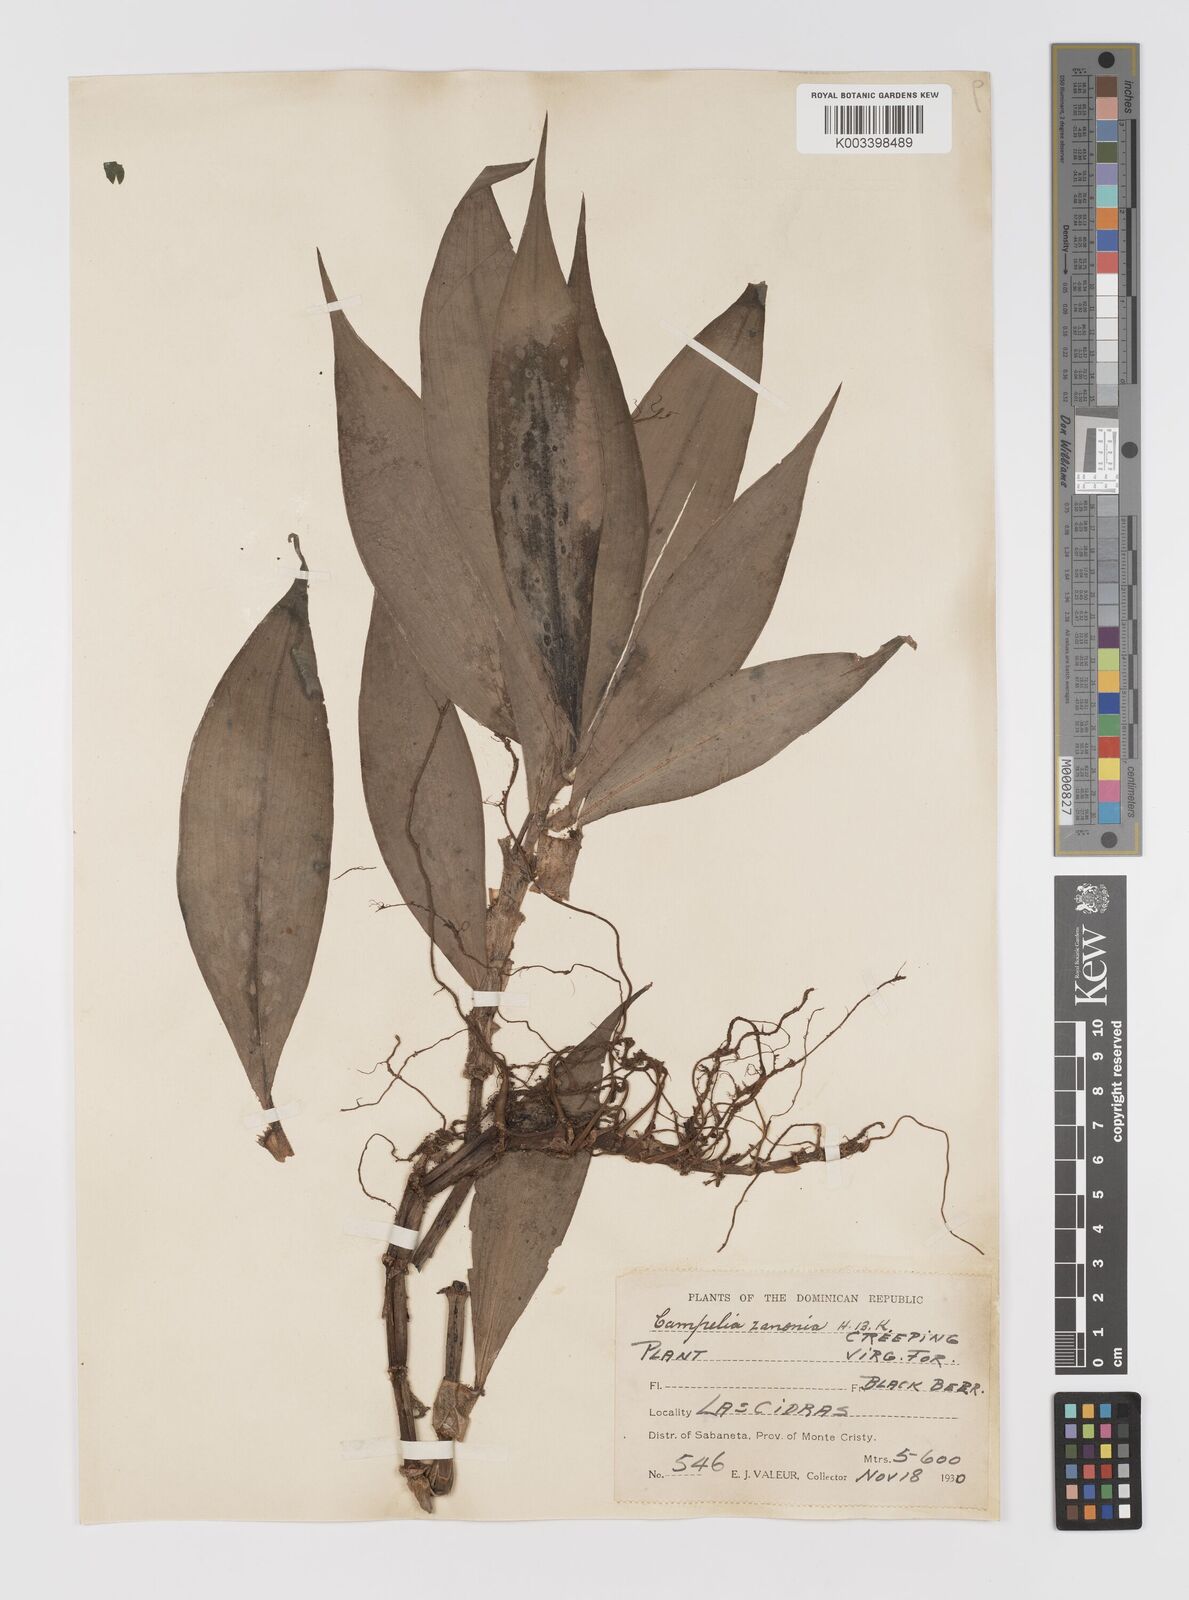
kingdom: Plantae
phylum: Tracheophyta
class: Liliopsida
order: Commelinales
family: Commelinaceae
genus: Tradescantia
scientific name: Tradescantia zanonia
